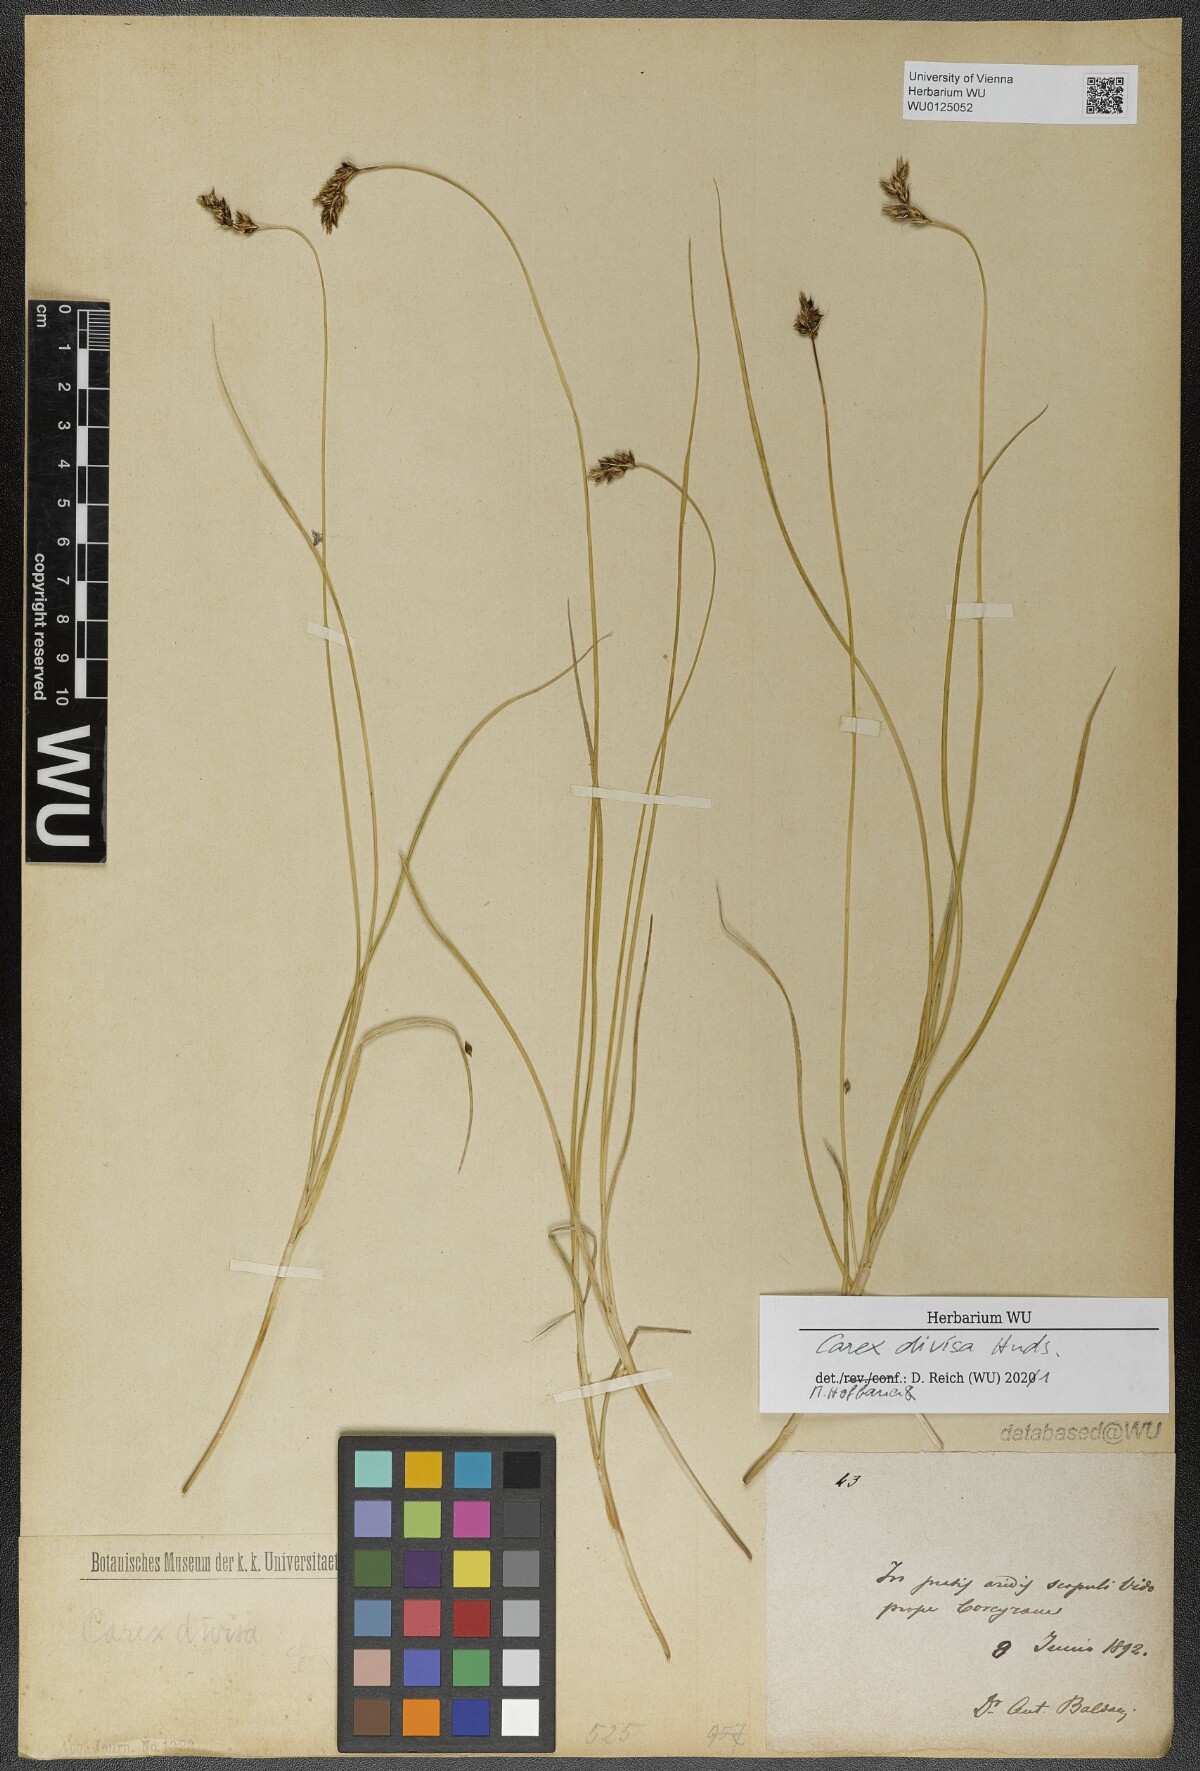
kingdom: Plantae
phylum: Tracheophyta
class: Liliopsida
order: Poales
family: Cyperaceae
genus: Carex
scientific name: Carex divisa
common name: Divided sedge
